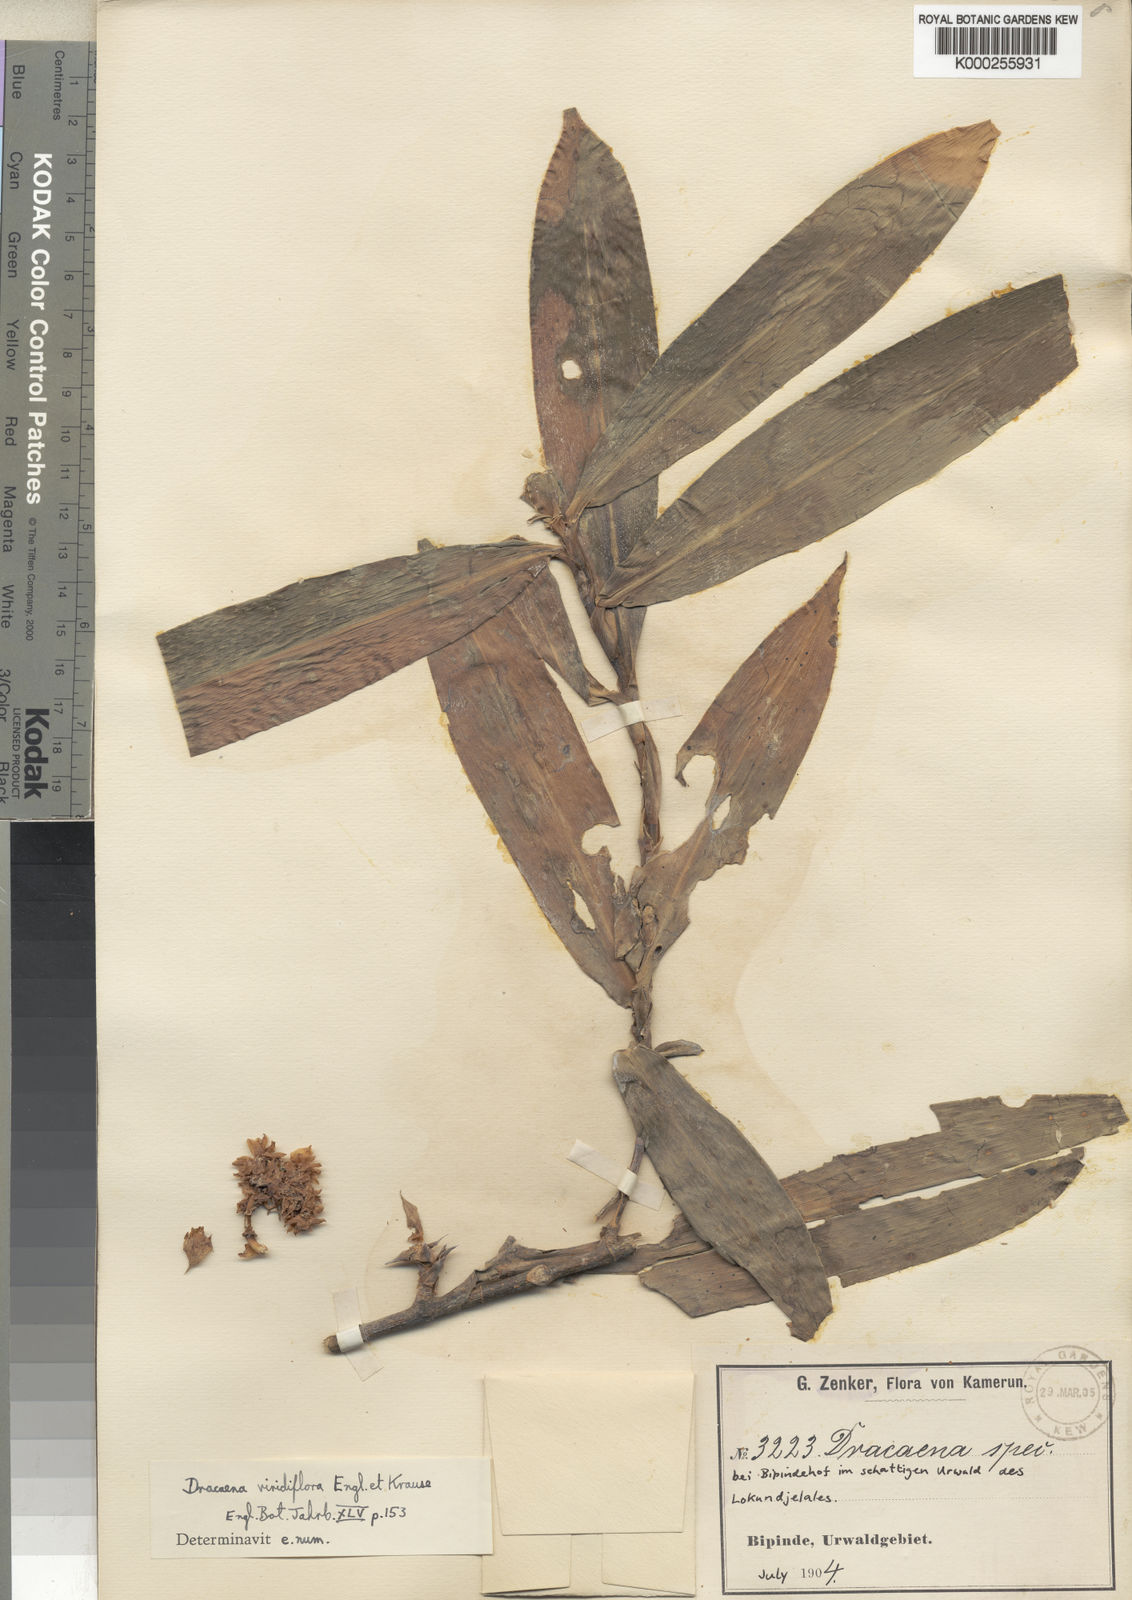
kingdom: Plantae
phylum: Tracheophyta
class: Liliopsida
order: Asparagales
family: Asparagaceae
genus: Dracaena
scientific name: Dracaena viridiflora
